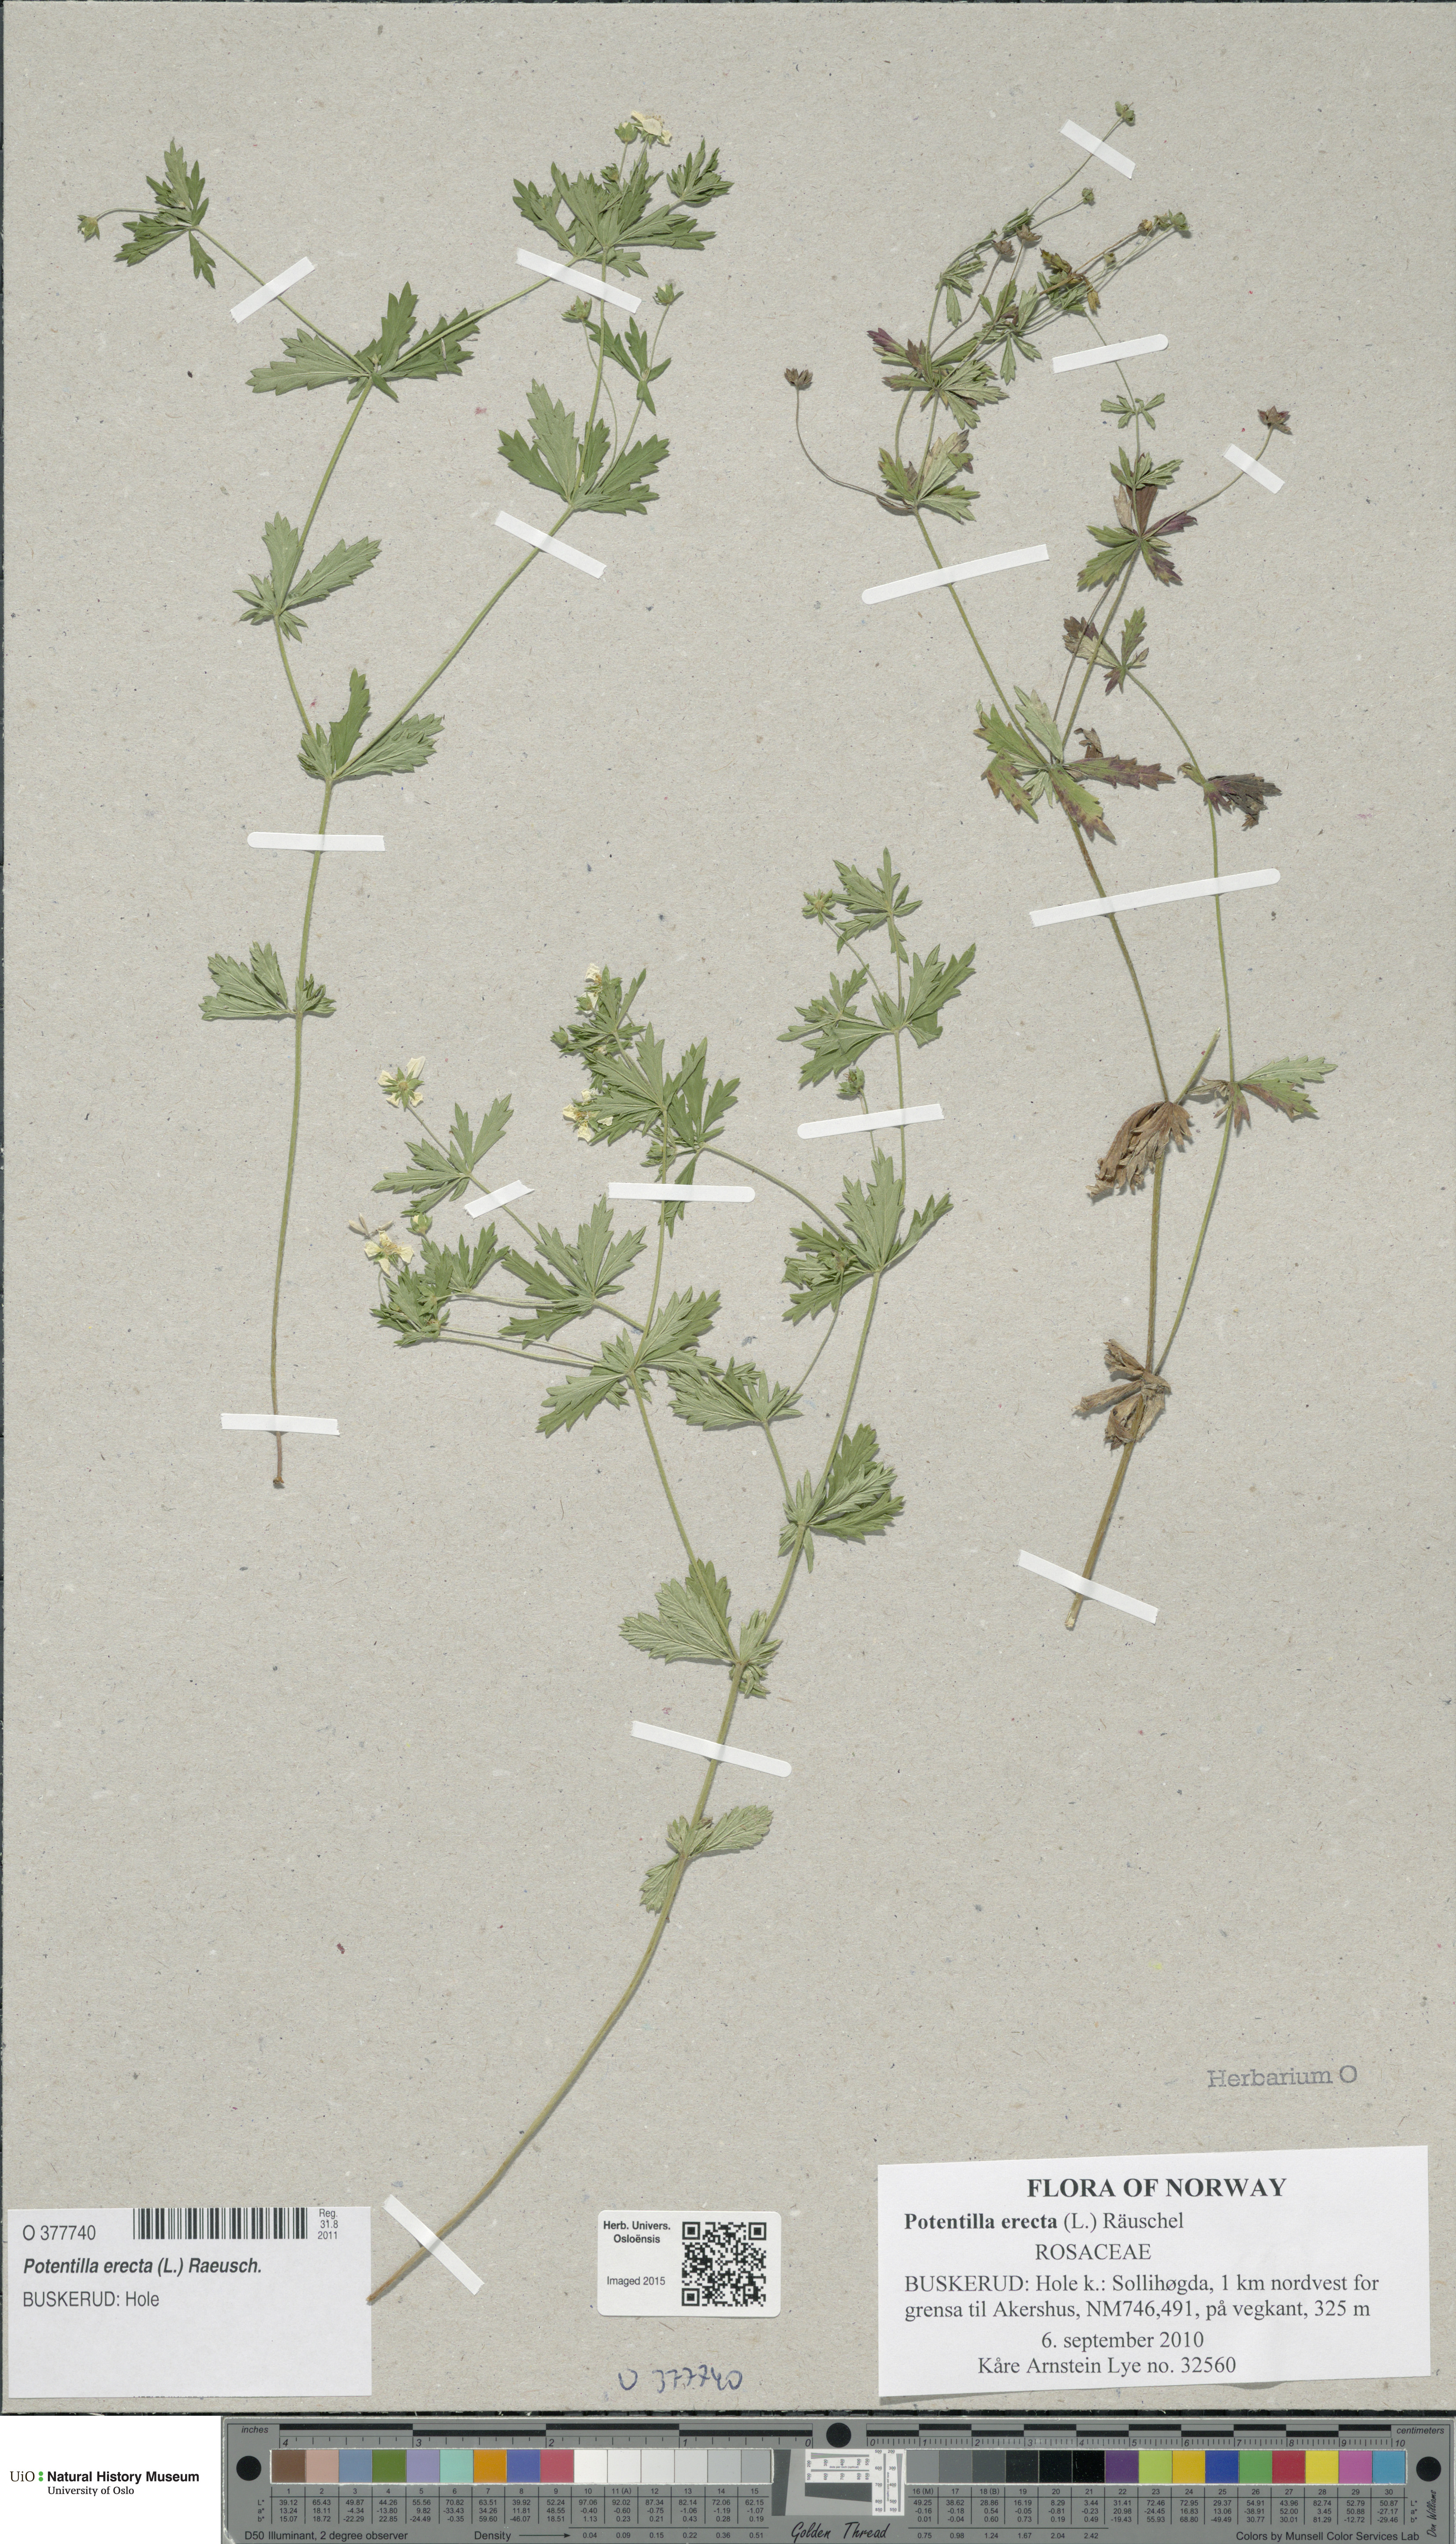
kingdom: Plantae
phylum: Tracheophyta
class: Magnoliopsida
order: Rosales
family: Rosaceae
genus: Potentilla
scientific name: Potentilla erecta
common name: Tormentil
